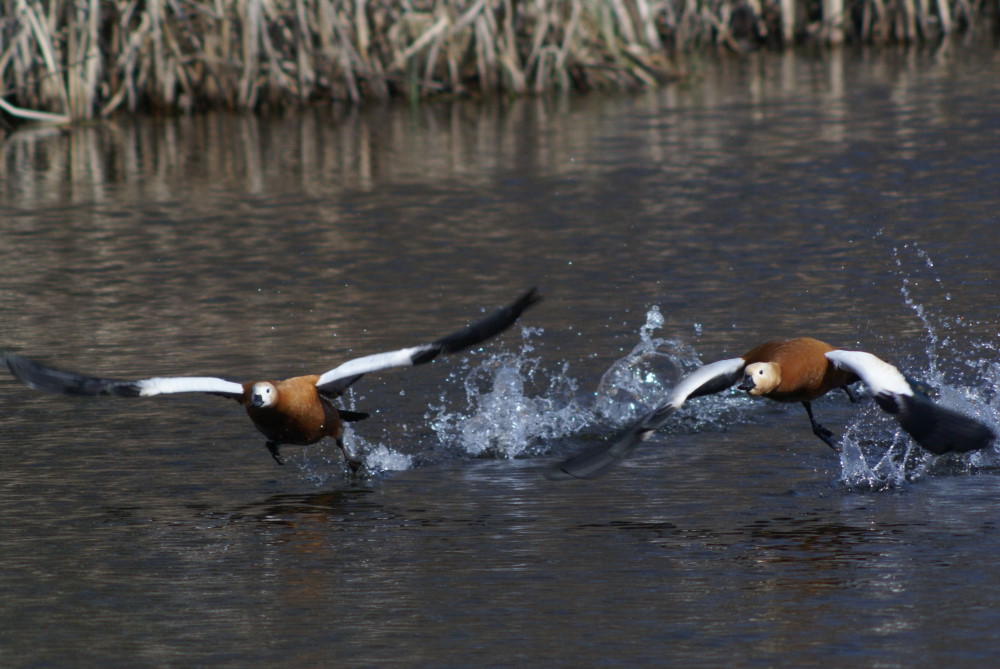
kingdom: Animalia
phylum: Chordata
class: Aves
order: Anseriformes
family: Anatidae
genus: Tadorna
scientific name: Tadorna ferruginea
